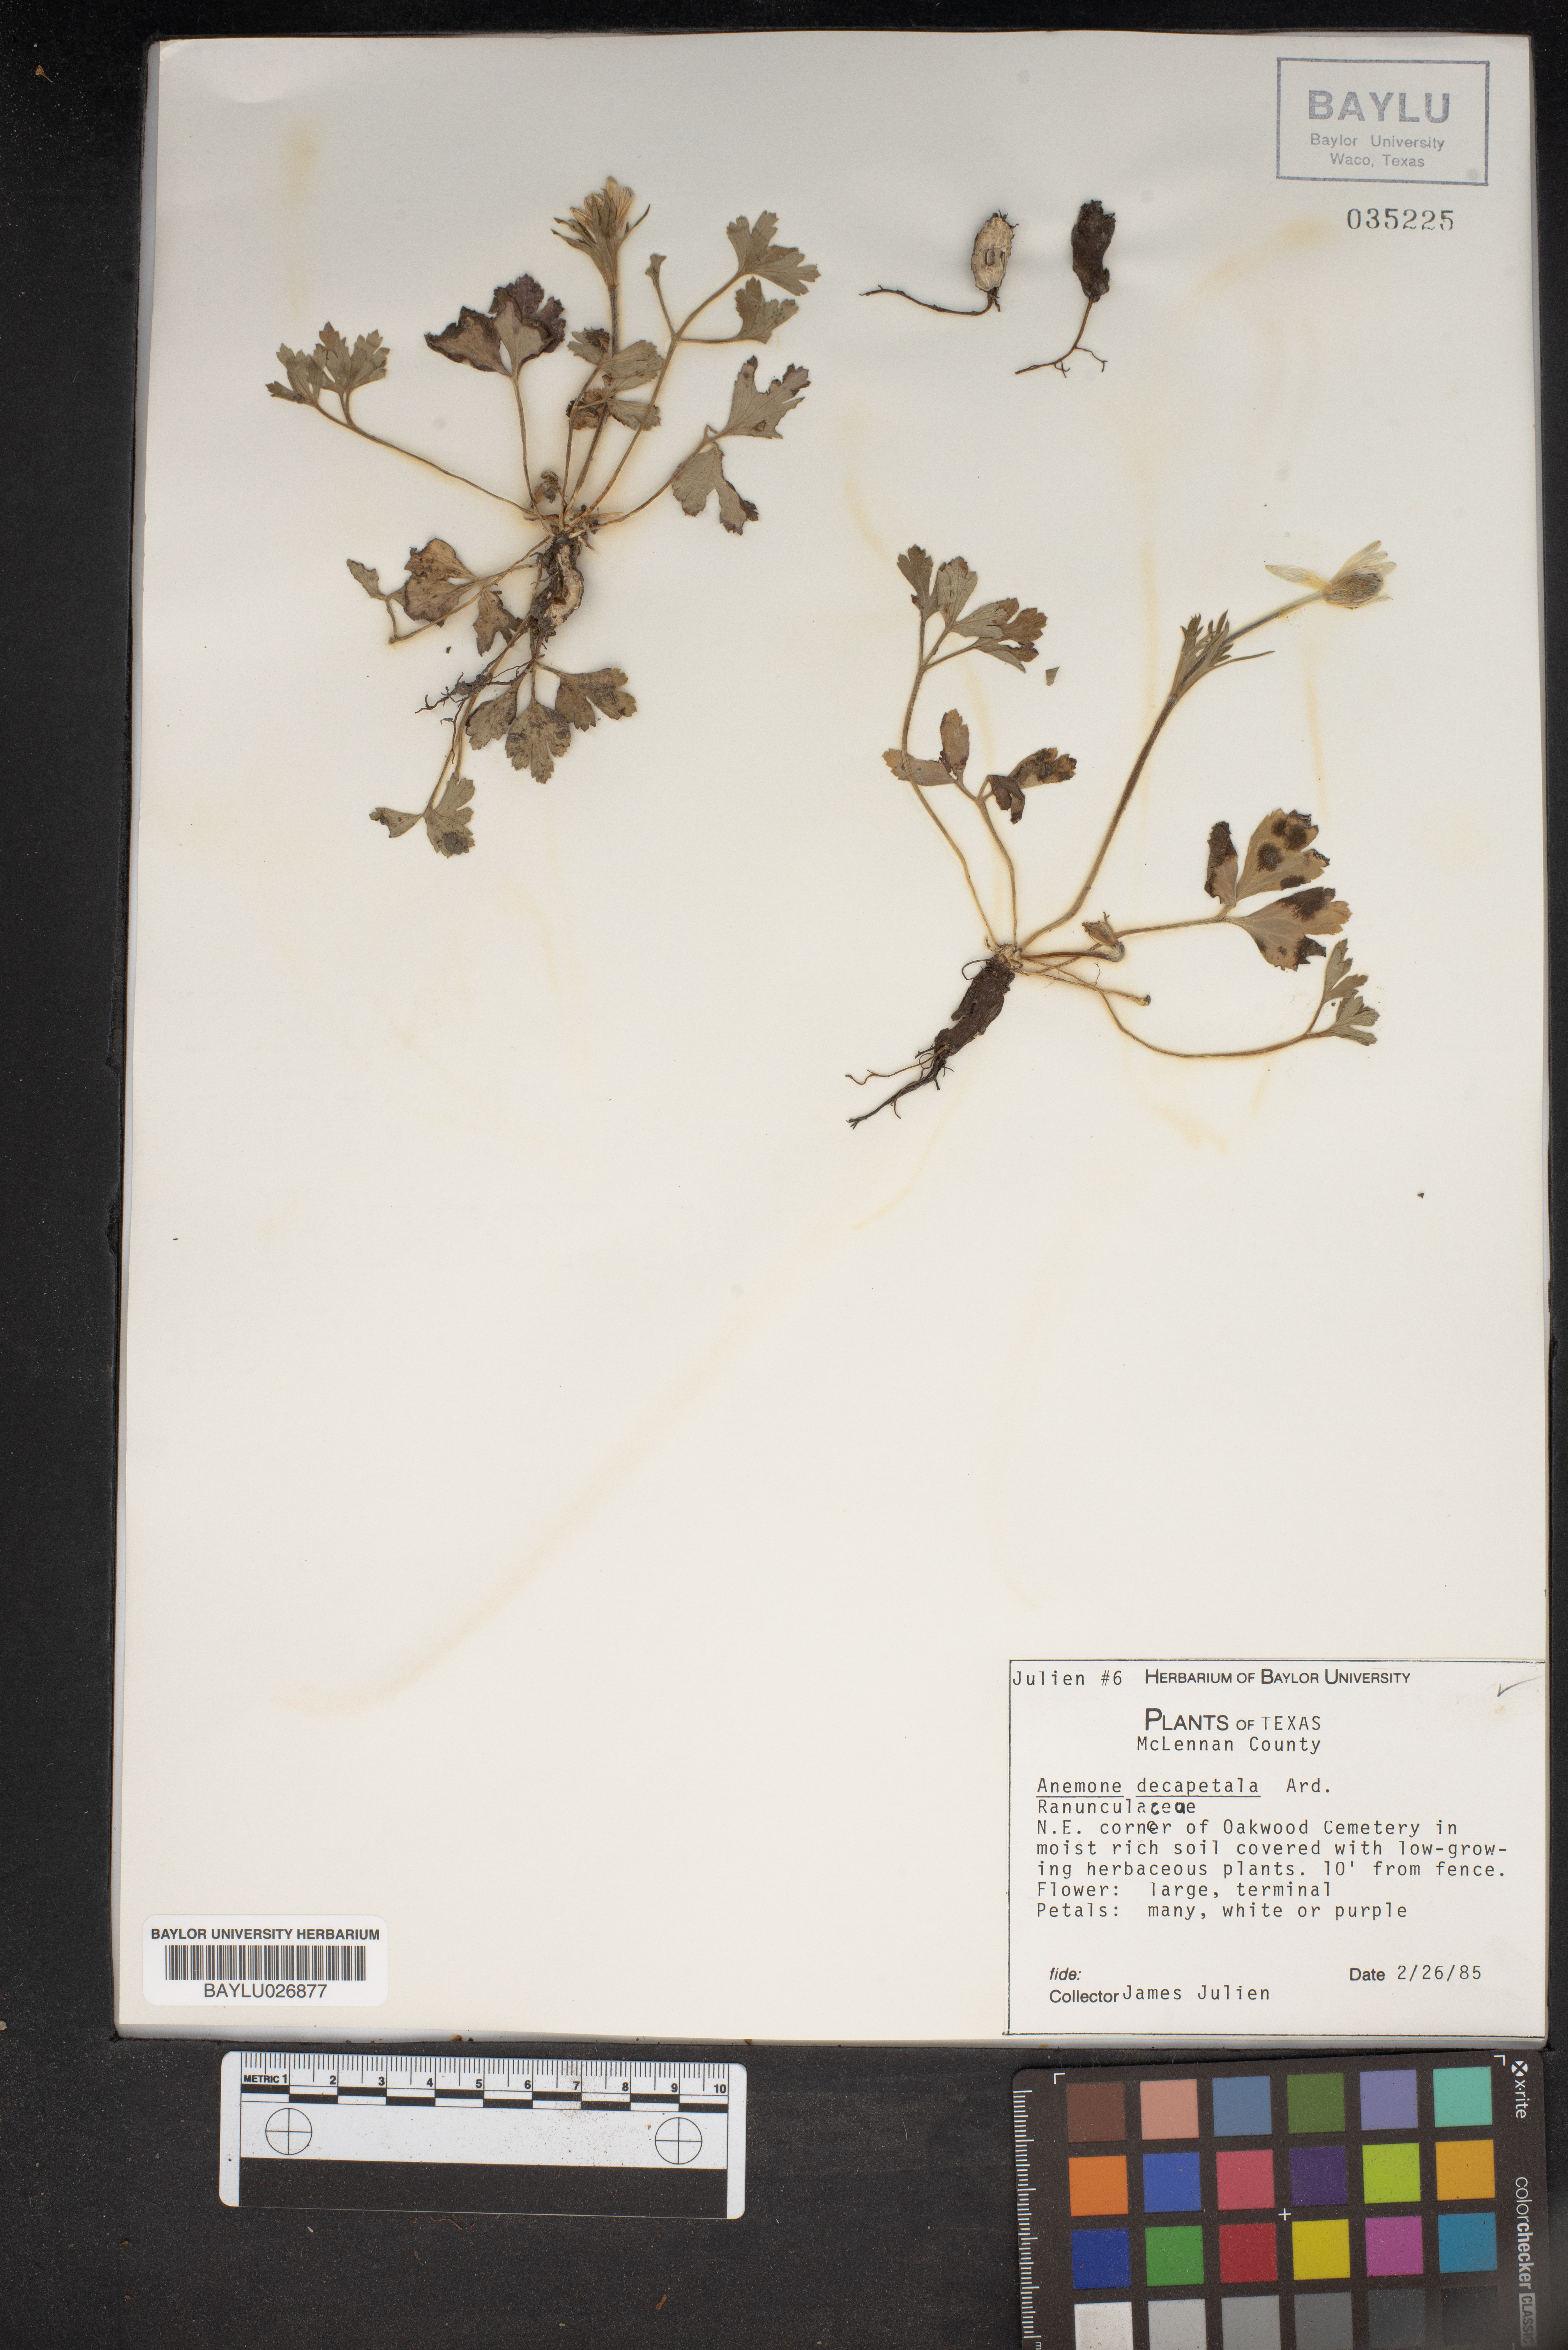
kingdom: Plantae
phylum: Tracheophyta
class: Magnoliopsida
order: Ranunculales
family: Ranunculaceae
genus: Anemone
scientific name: Anemone decapetala
